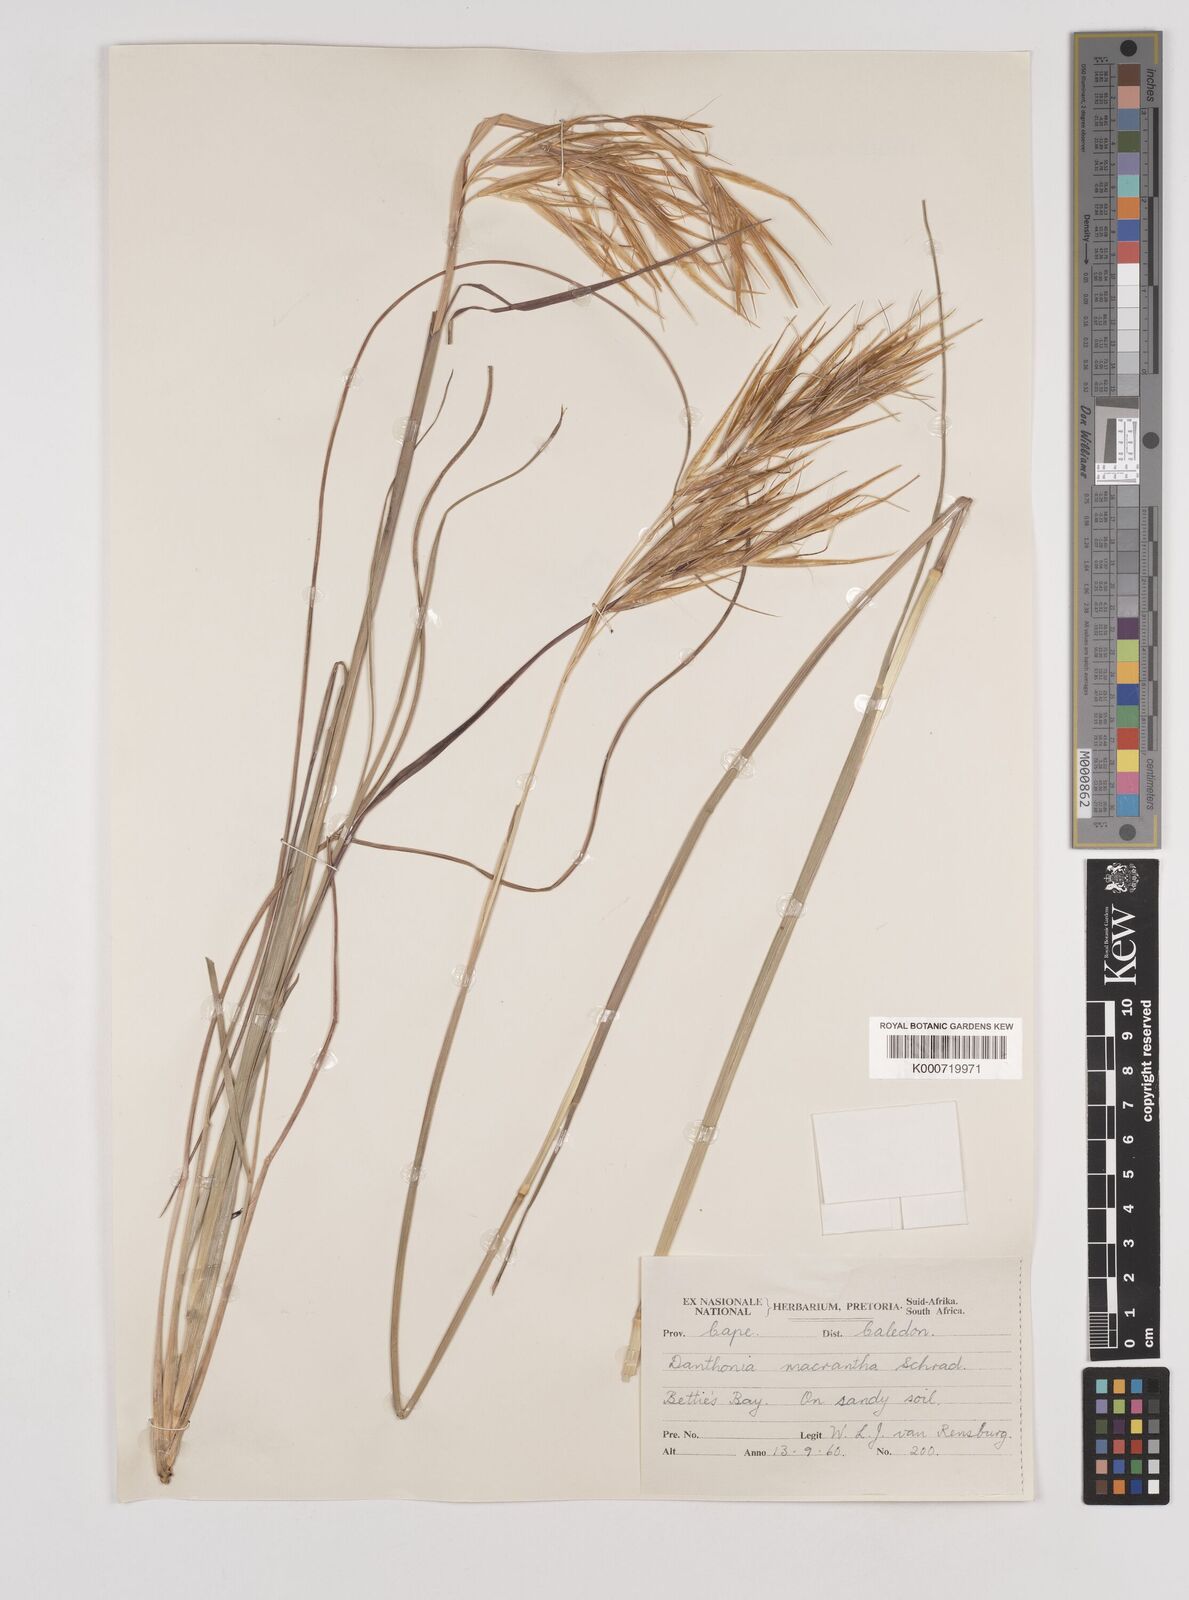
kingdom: Plantae
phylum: Tracheophyta
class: Liliopsida
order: Poales
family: Poaceae
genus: Pseudopentameris
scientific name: Pseudopentameris macrantha
